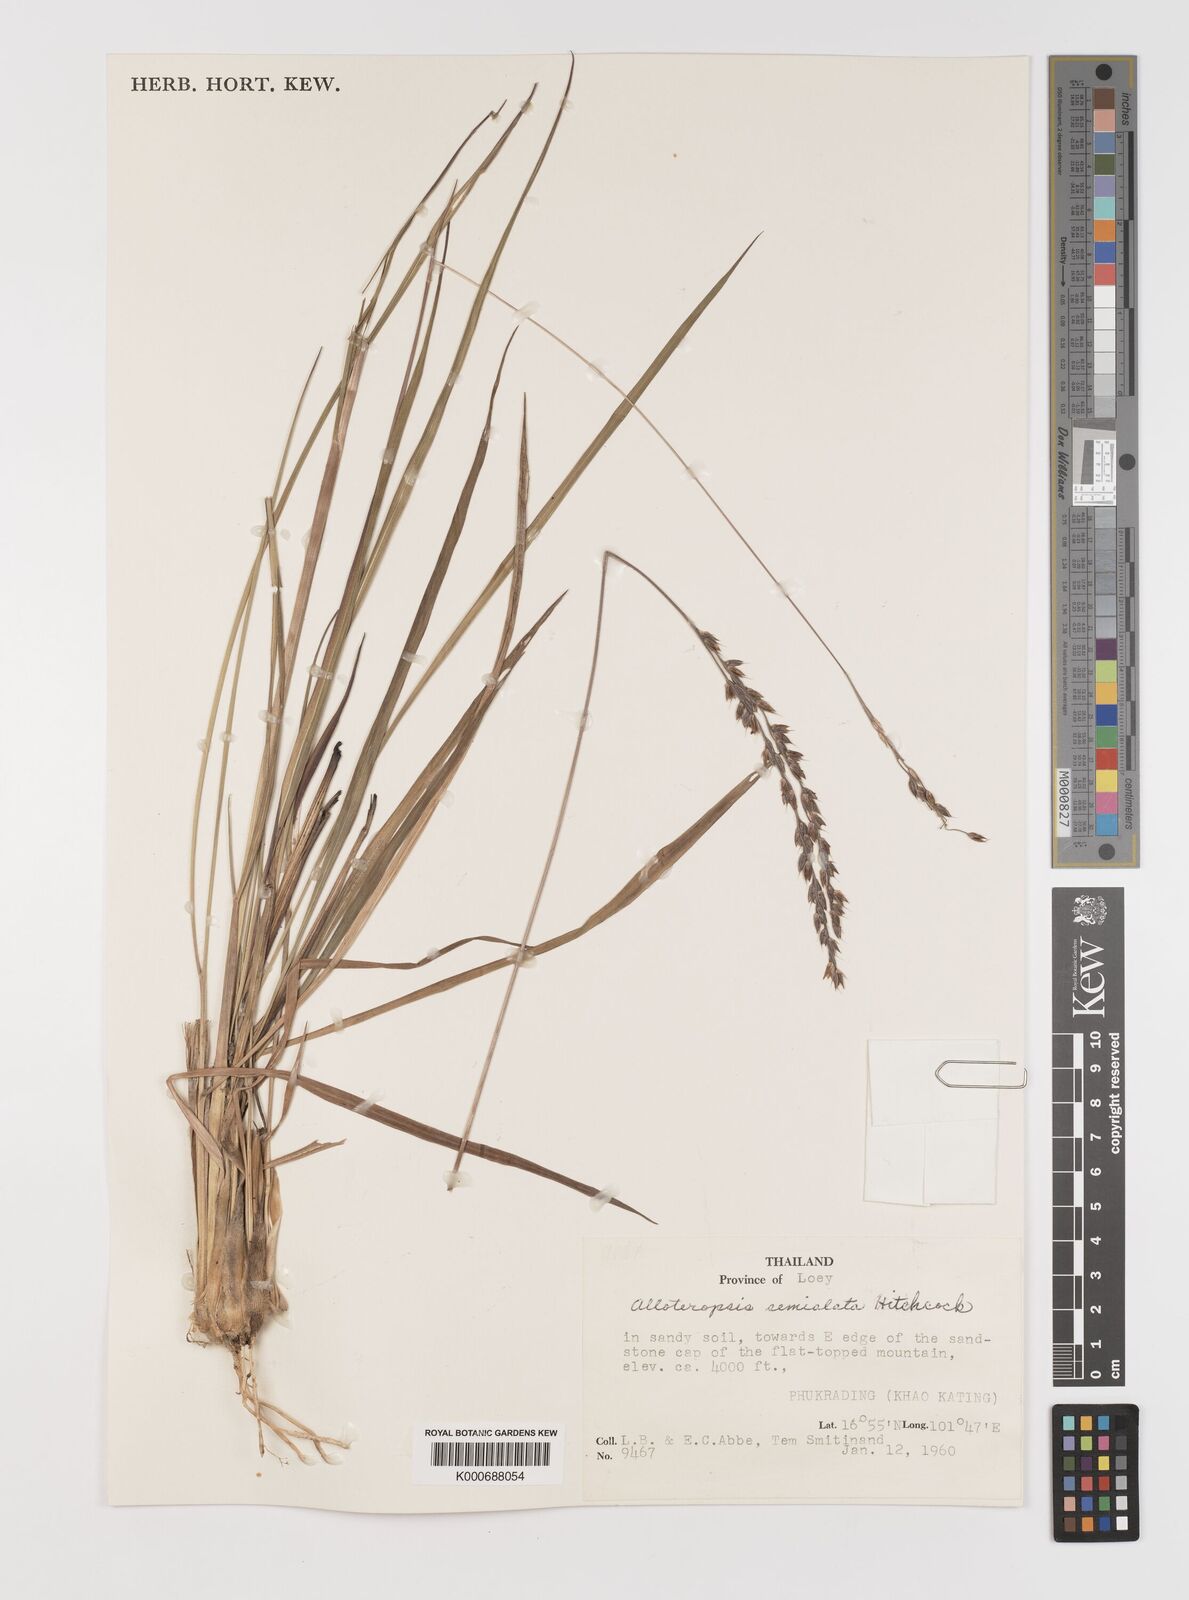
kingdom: Plantae
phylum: Tracheophyta
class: Liliopsida
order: Poales
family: Poaceae
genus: Alloteropsis
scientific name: Alloteropsis semialata
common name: Cockatoo grass
